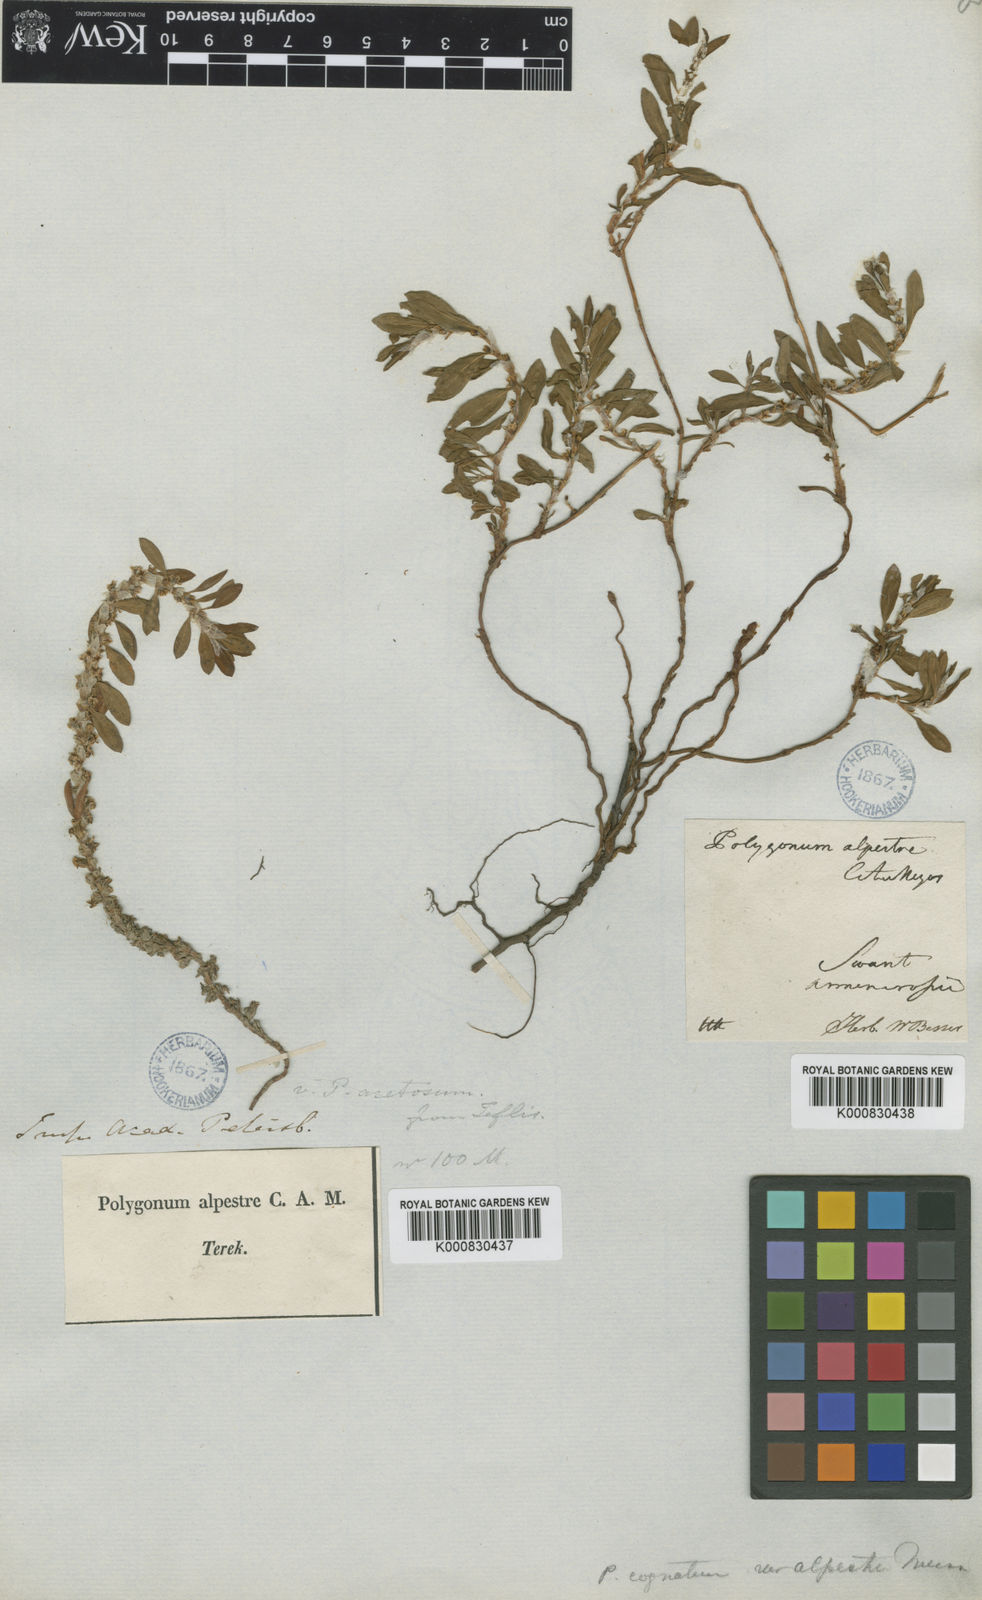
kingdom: Plantae
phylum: Tracheophyta
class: Magnoliopsida
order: Caryophyllales
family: Polygonaceae
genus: Polygonum
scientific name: Polygonum cognatum
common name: Indian knotgrass
